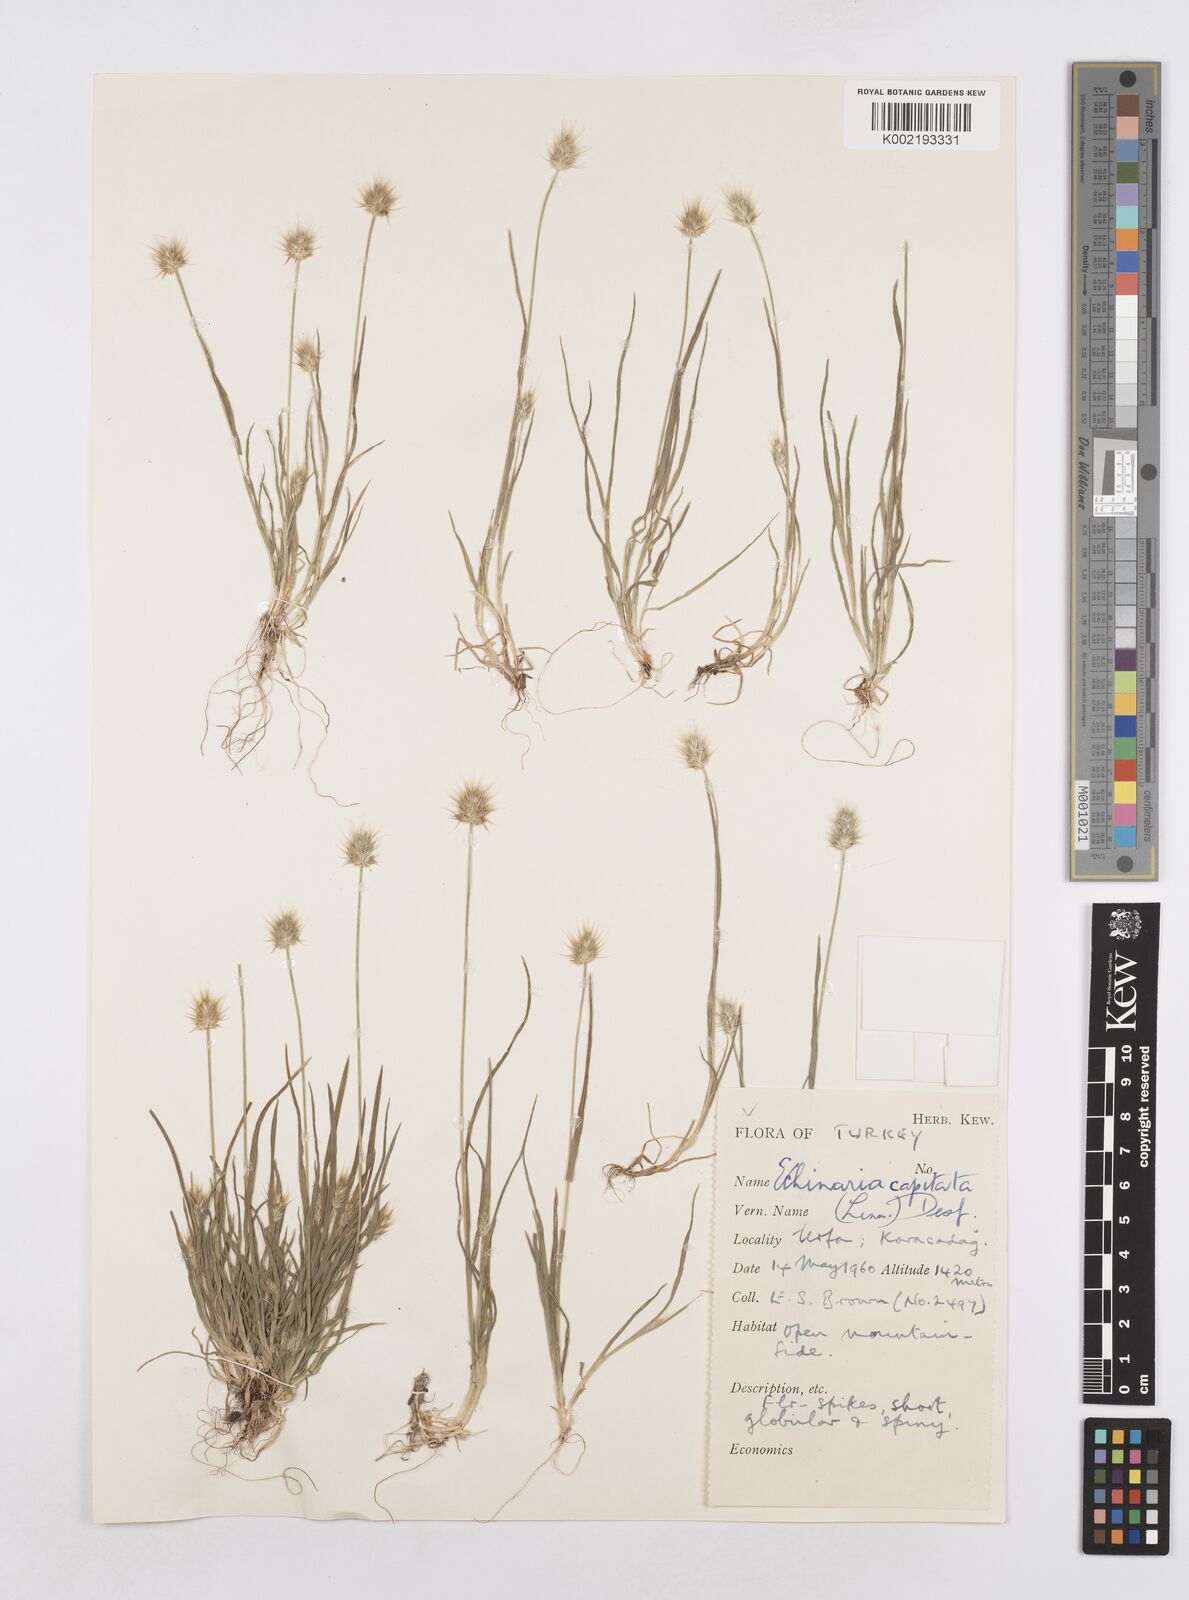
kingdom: Plantae
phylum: Tracheophyta
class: Liliopsida
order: Poales
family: Poaceae
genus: Echinaria
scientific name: Echinaria capitata
